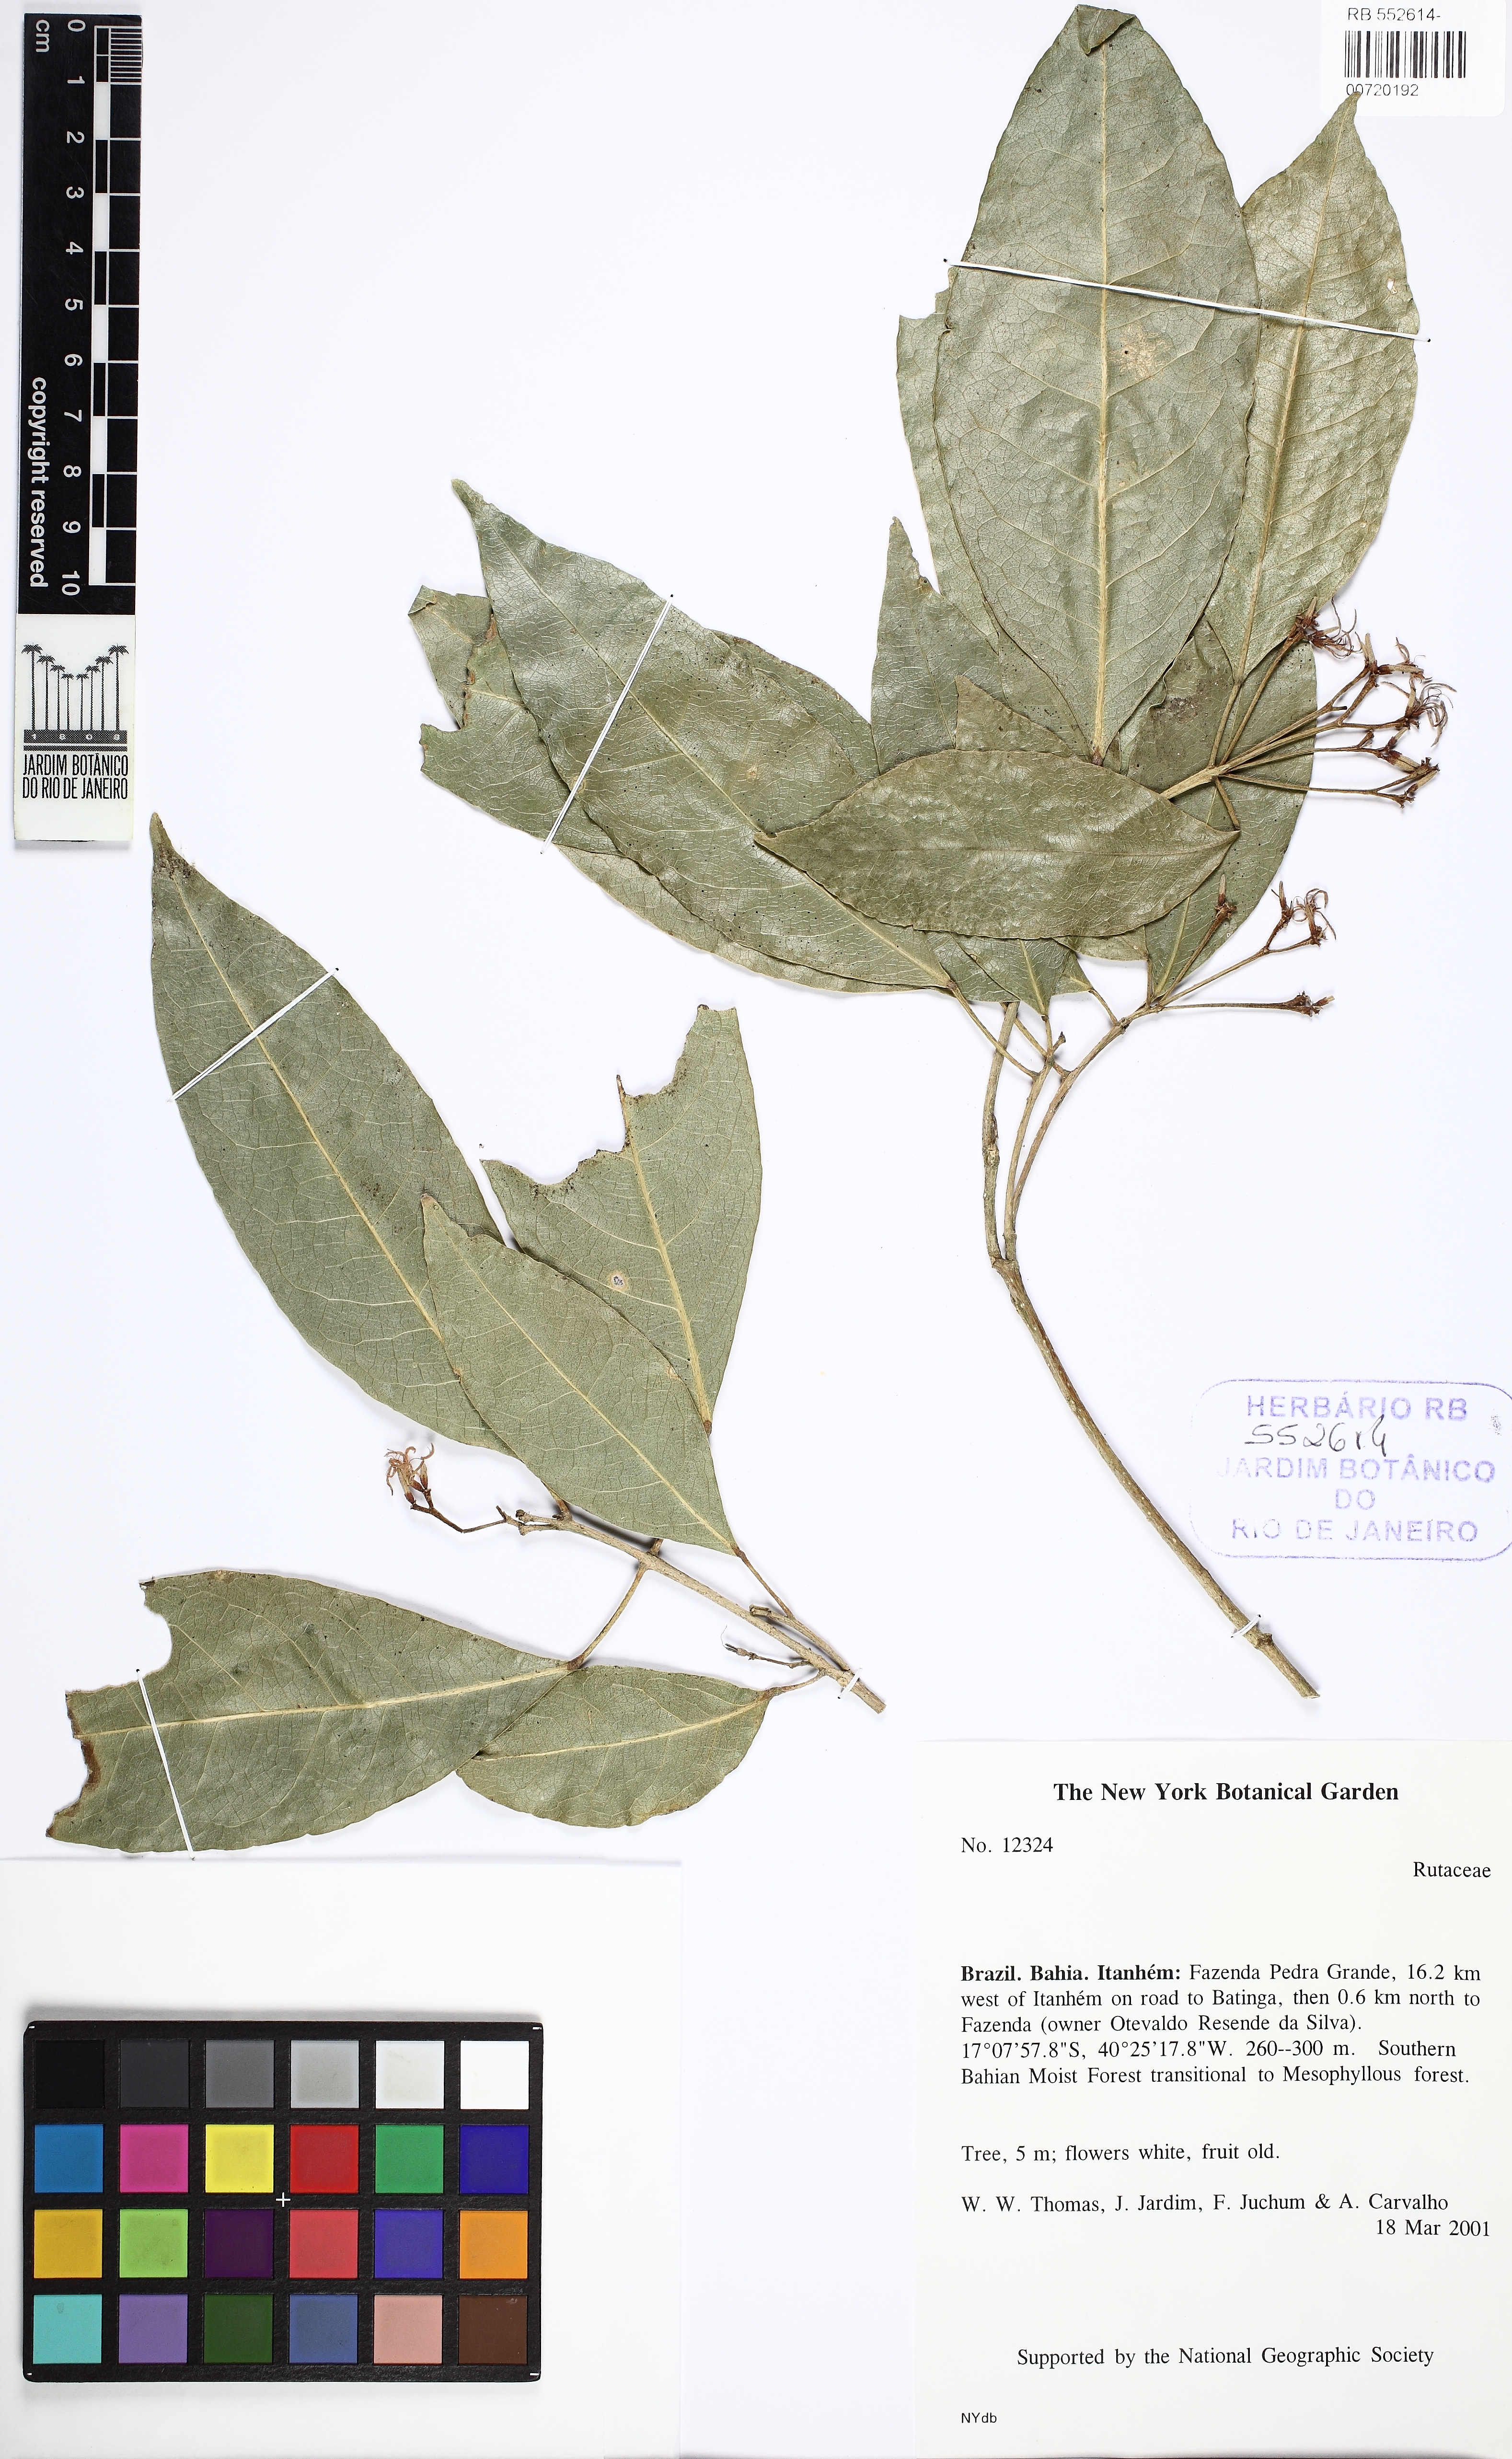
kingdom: Plantae
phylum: Tracheophyta
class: Magnoliopsida
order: Sapindales
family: Rutaceae
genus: Rauia
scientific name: Rauia
